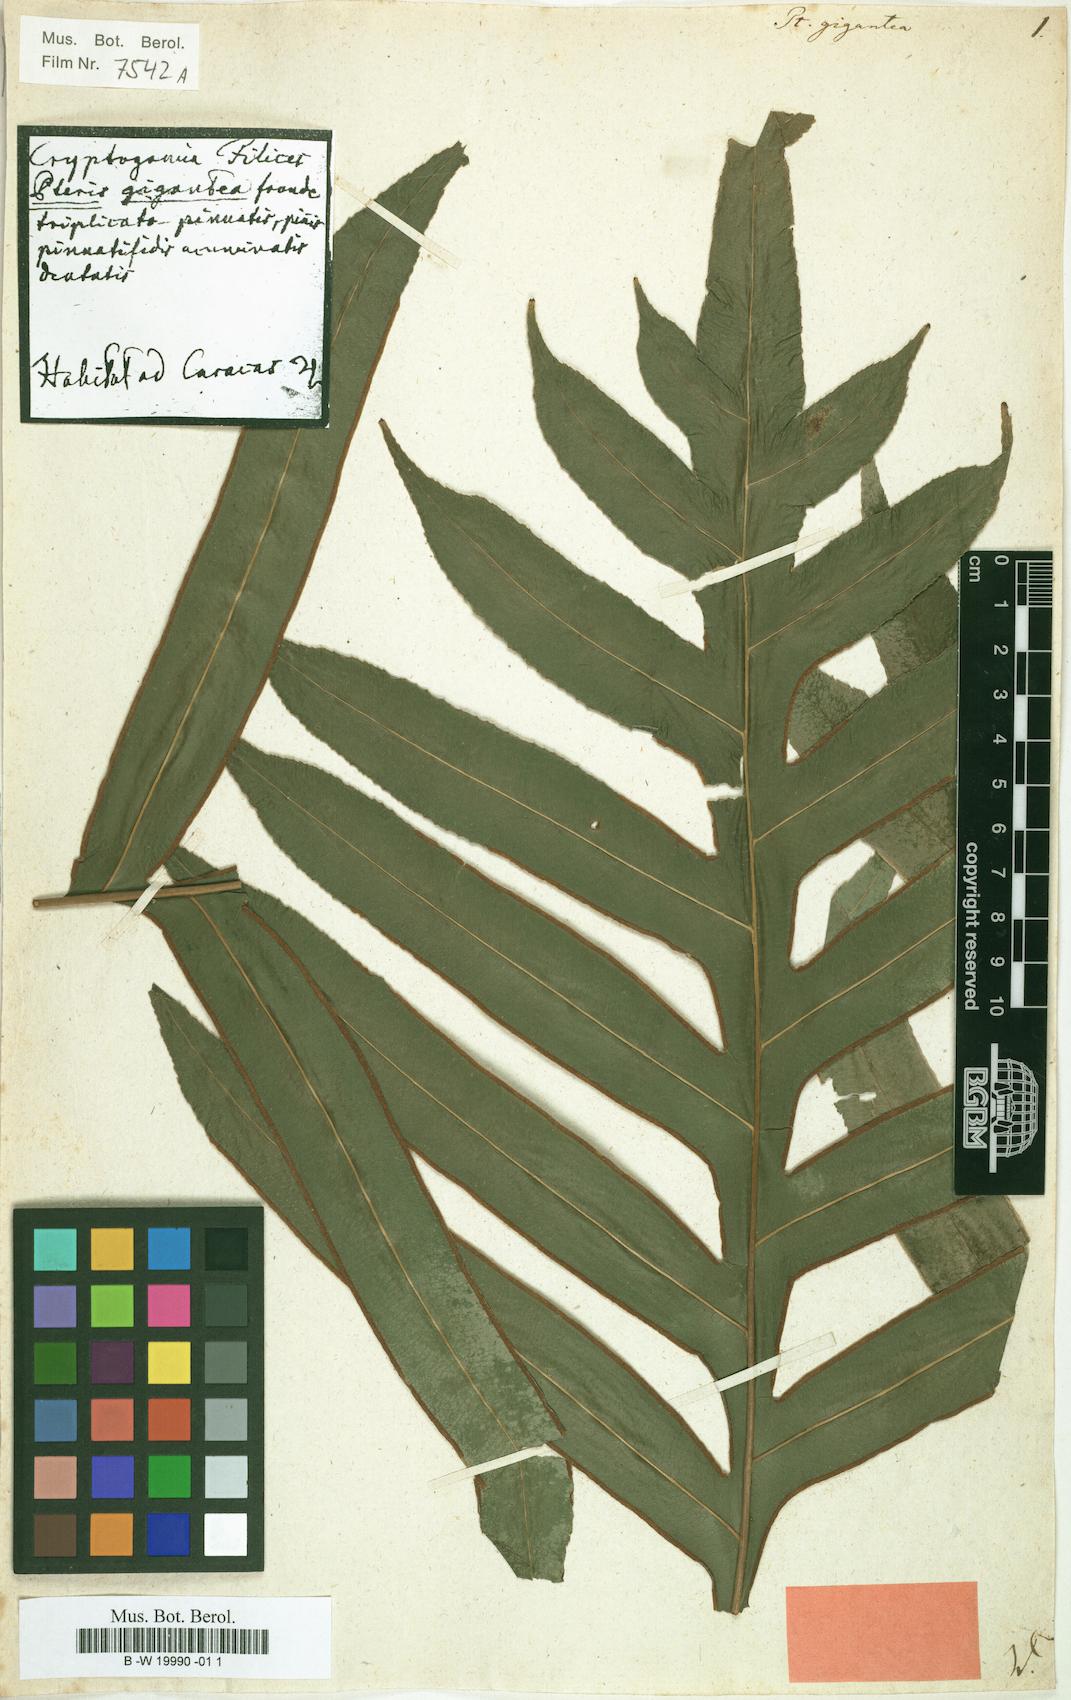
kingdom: Plantae
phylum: Tracheophyta
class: Polypodiopsida
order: Polypodiales
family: Pteridaceae
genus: Pteris
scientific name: Pteris gigantea
